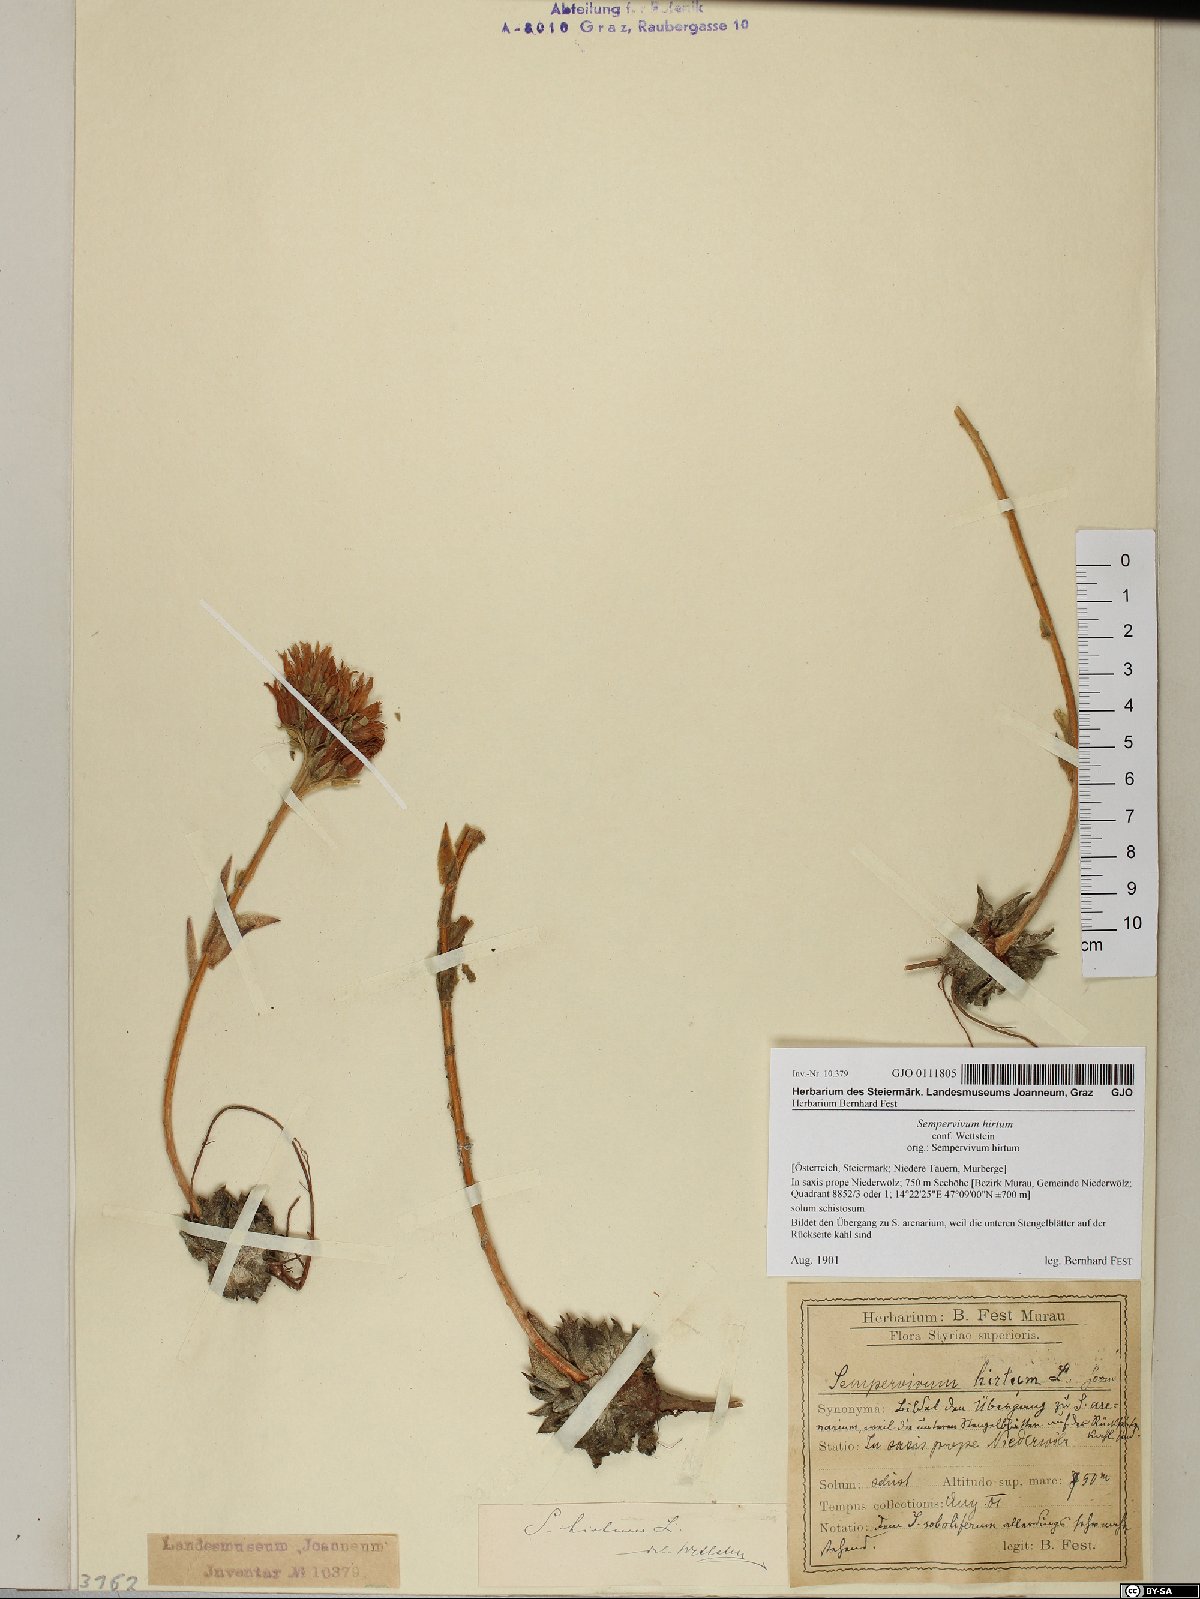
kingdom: Plantae
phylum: Tracheophyta
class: Magnoliopsida
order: Saxifragales
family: Crassulaceae
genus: Sempervivum
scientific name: Sempervivum globiferum
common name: Rolling hen-and-chicks
